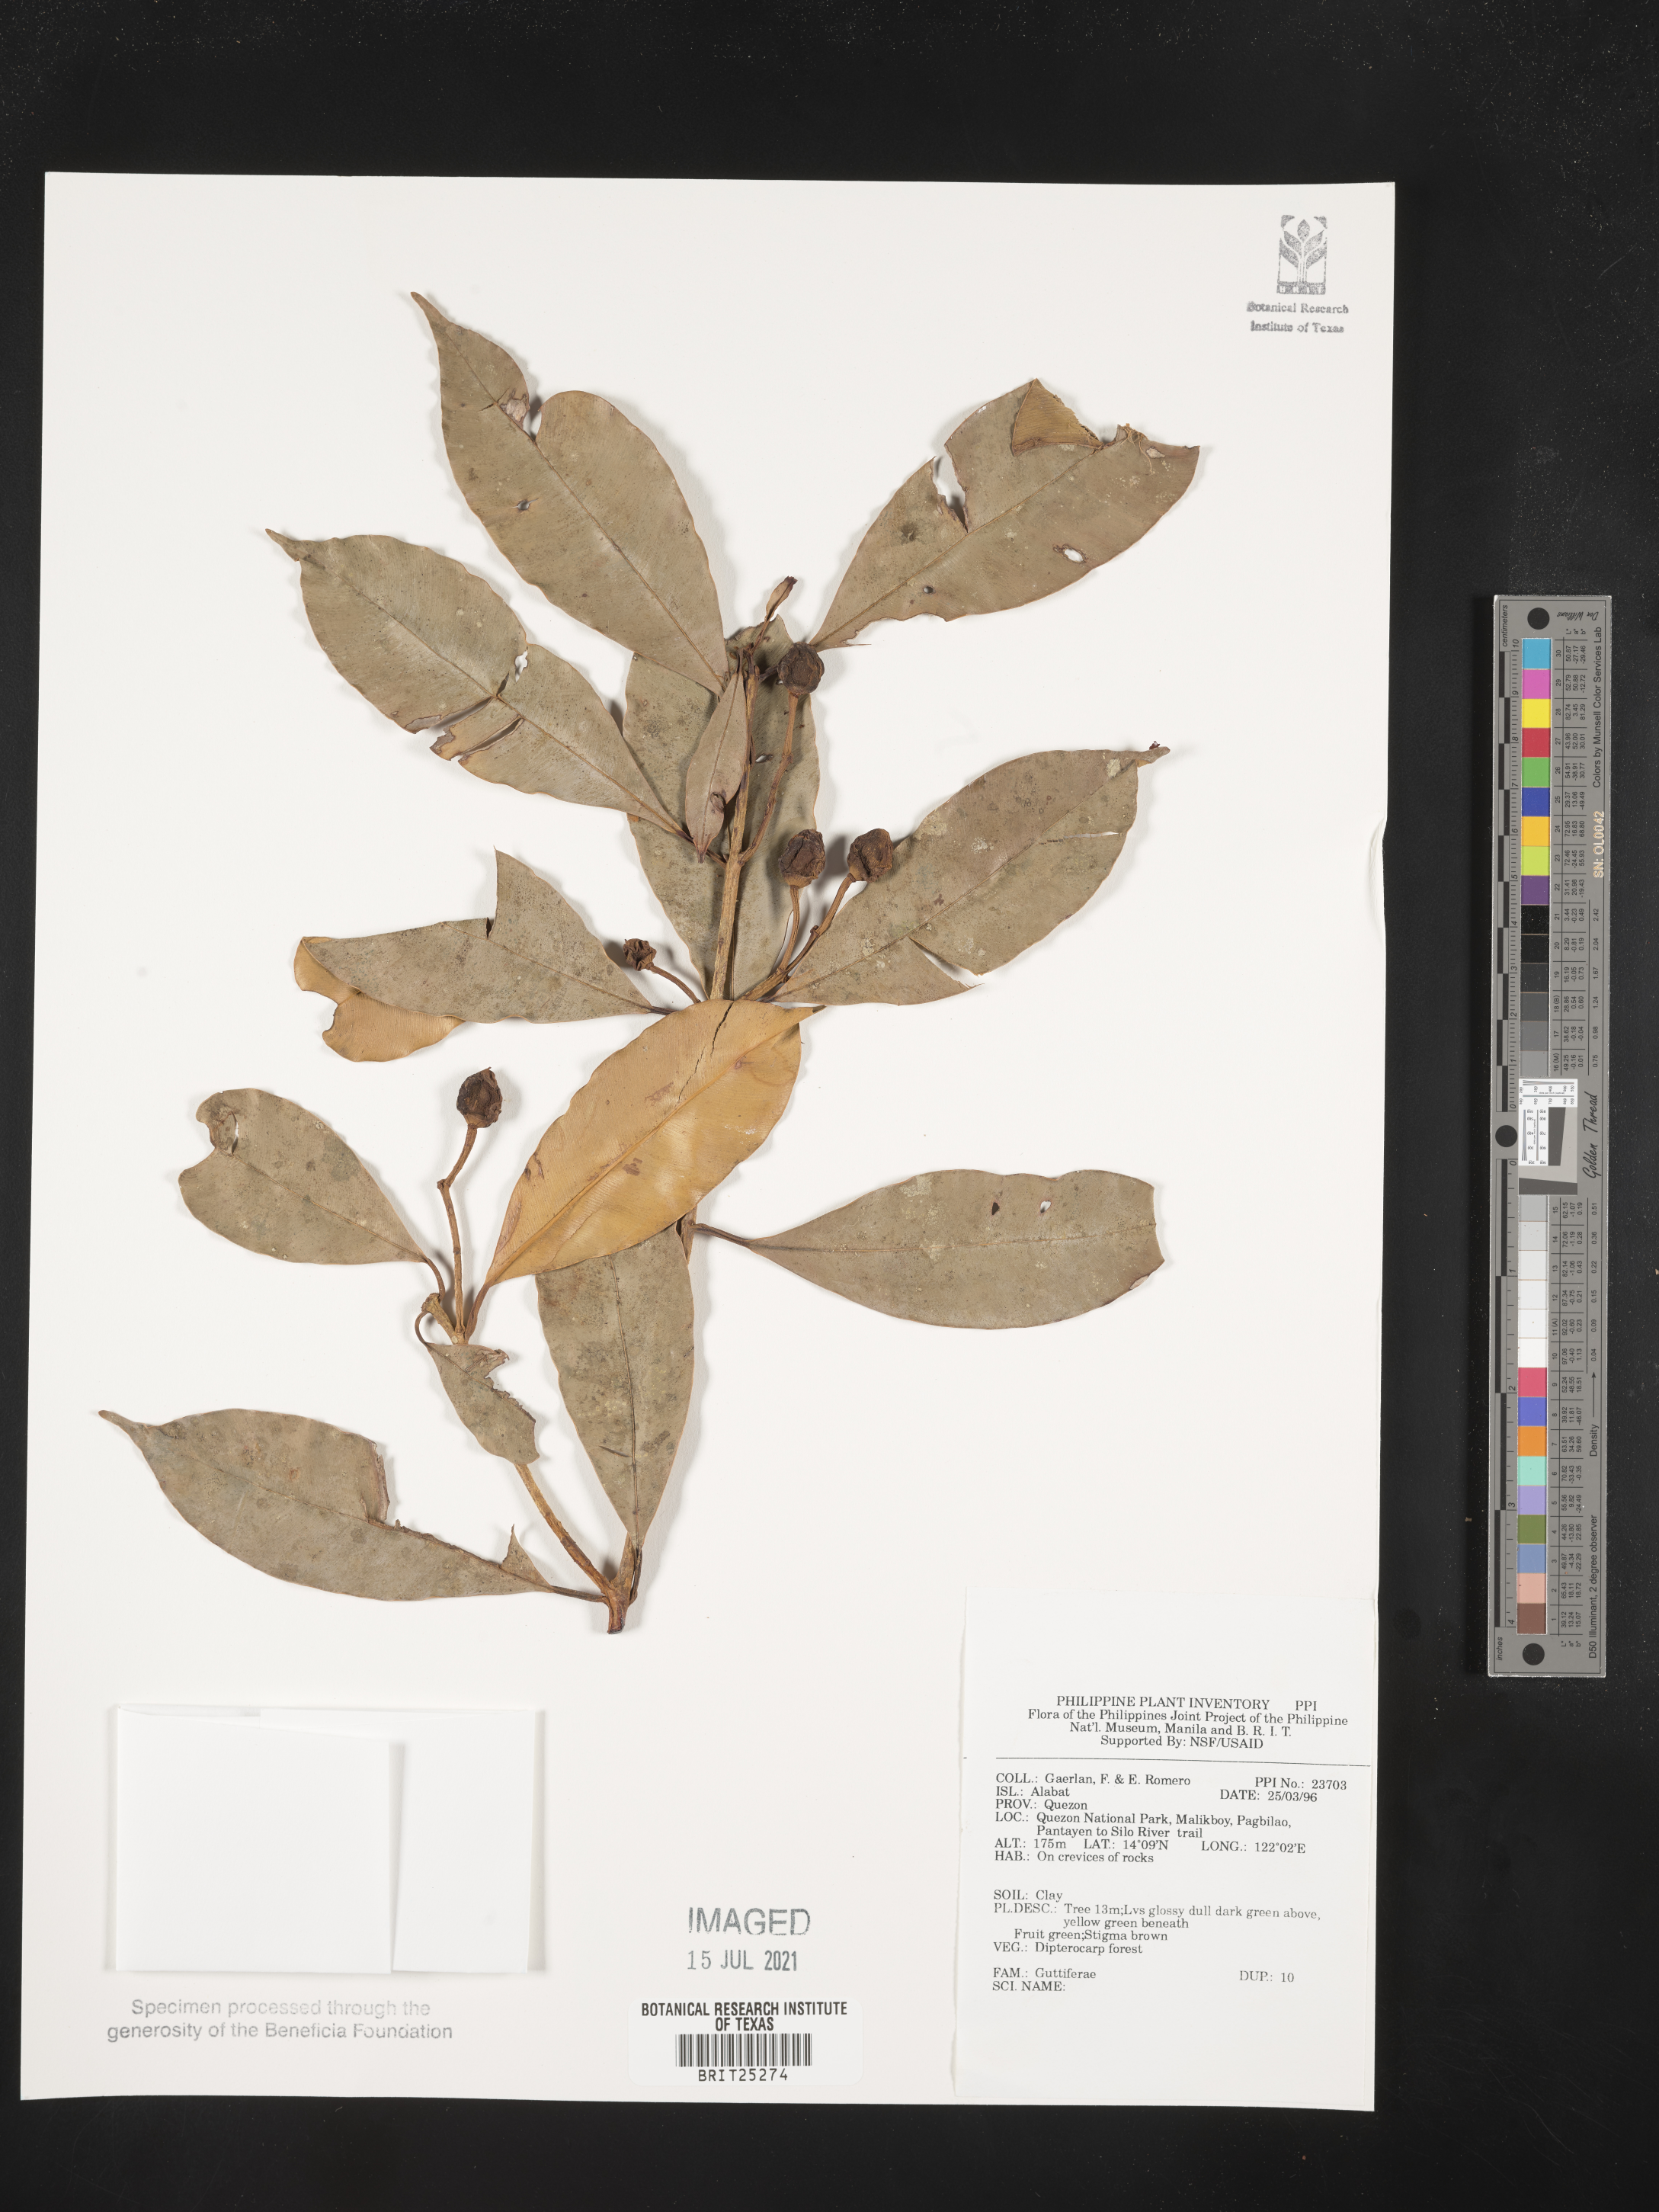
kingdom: Plantae
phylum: Tracheophyta
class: Magnoliopsida
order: Malpighiales
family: Hypericaceae
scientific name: Hypericaceae
